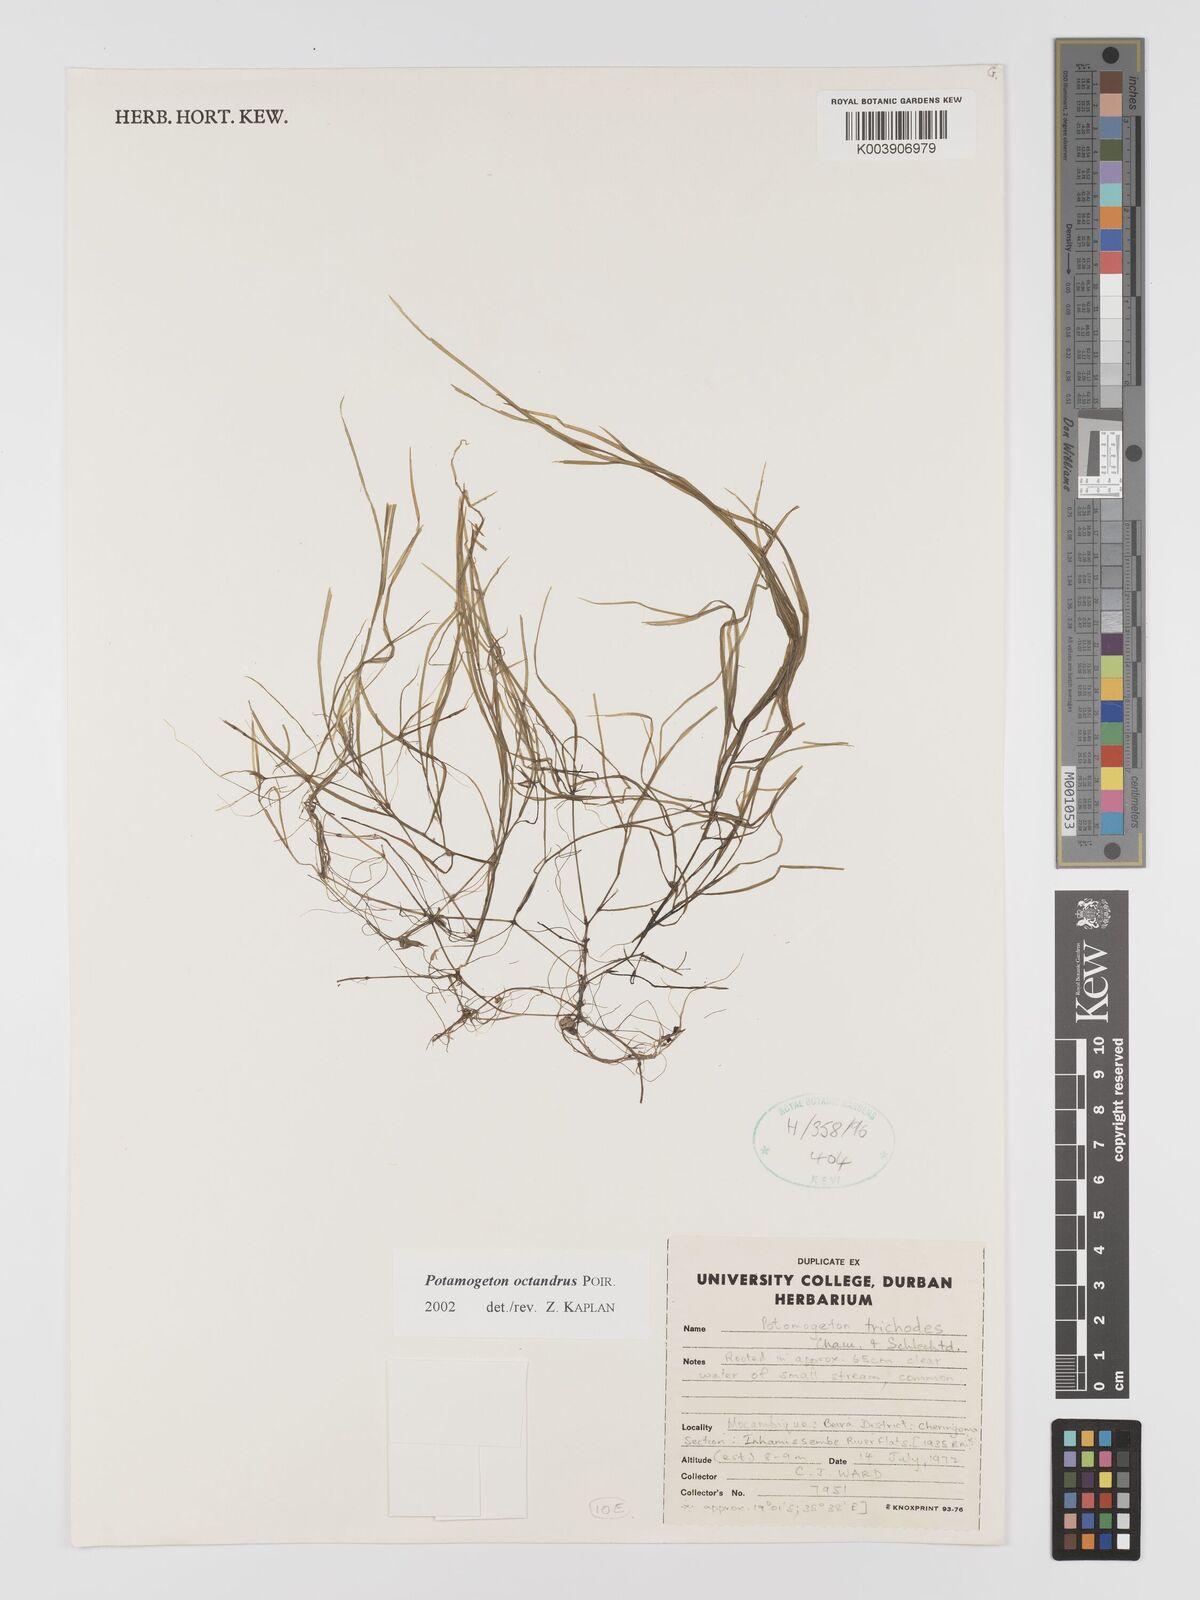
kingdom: Plantae
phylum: Tracheophyta
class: Liliopsida
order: Alismatales
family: Potamogetonaceae
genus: Potamogeton
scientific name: Potamogeton octandrus
